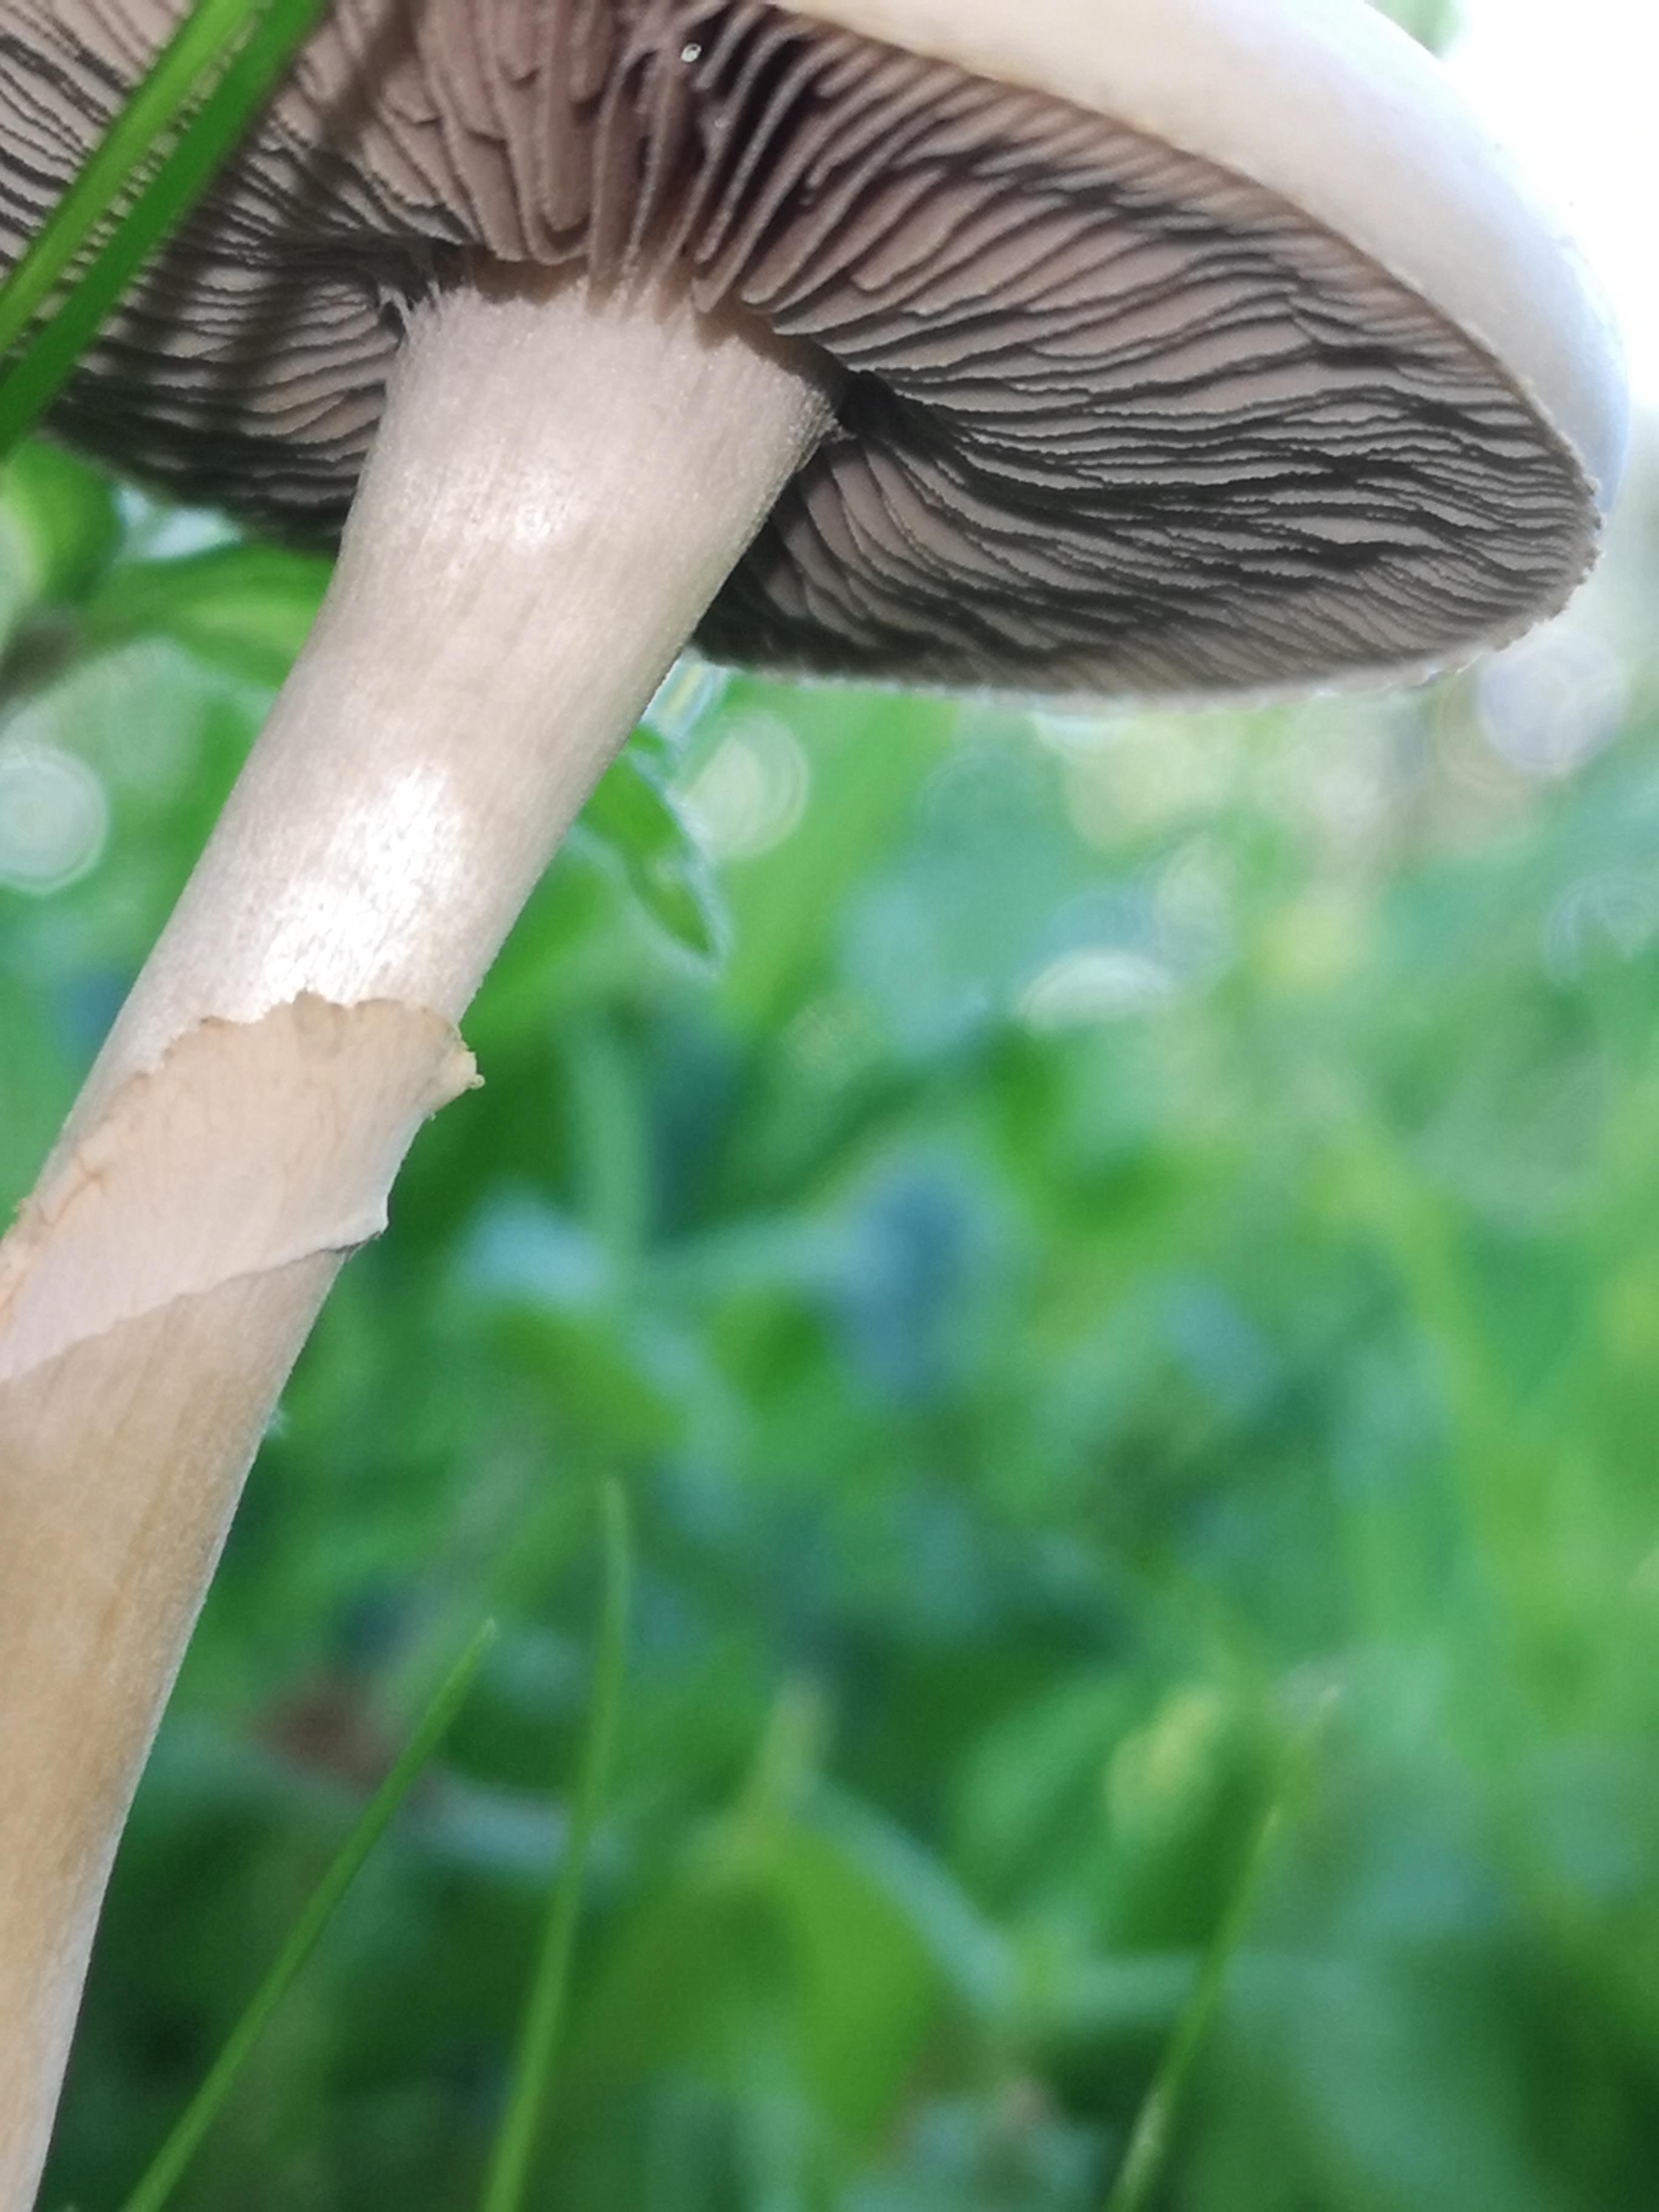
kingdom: Fungi
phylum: Basidiomycota
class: Agaricomycetes
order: Agaricales
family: Strophariaceae
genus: Agrocybe
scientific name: Agrocybe
